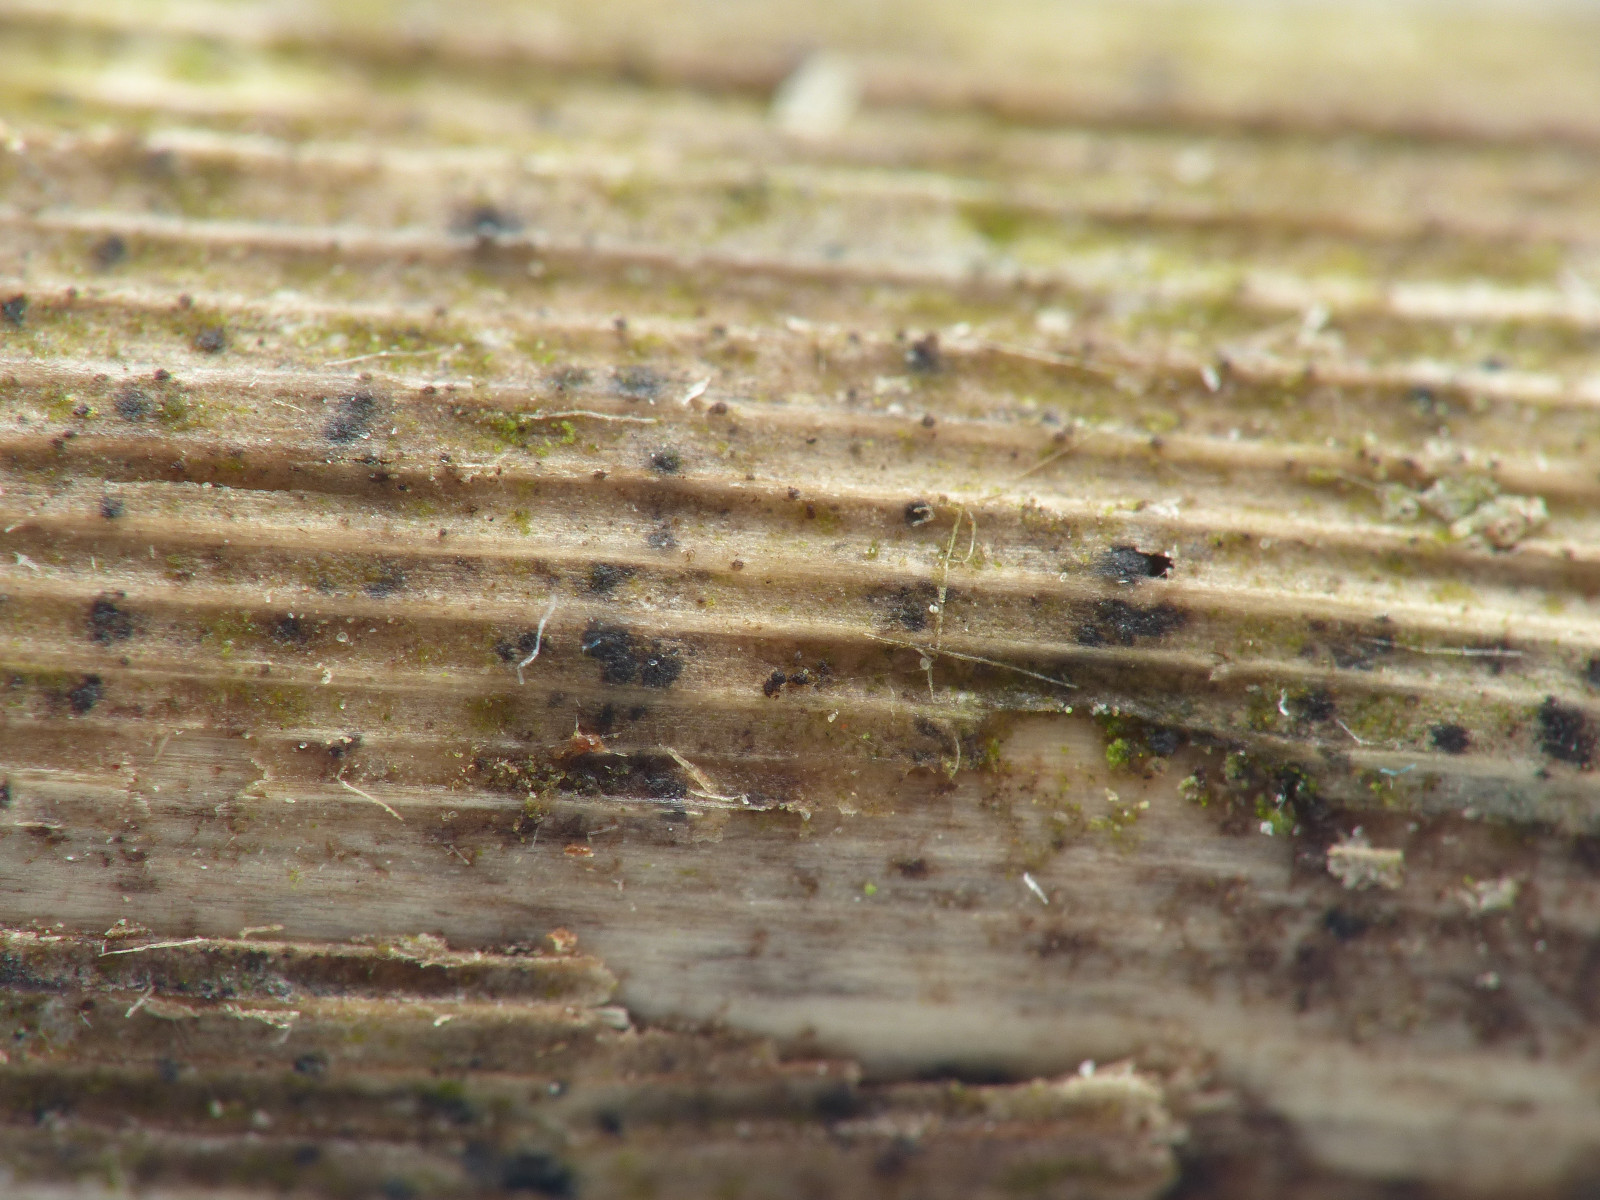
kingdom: Fungi
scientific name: Fungi
